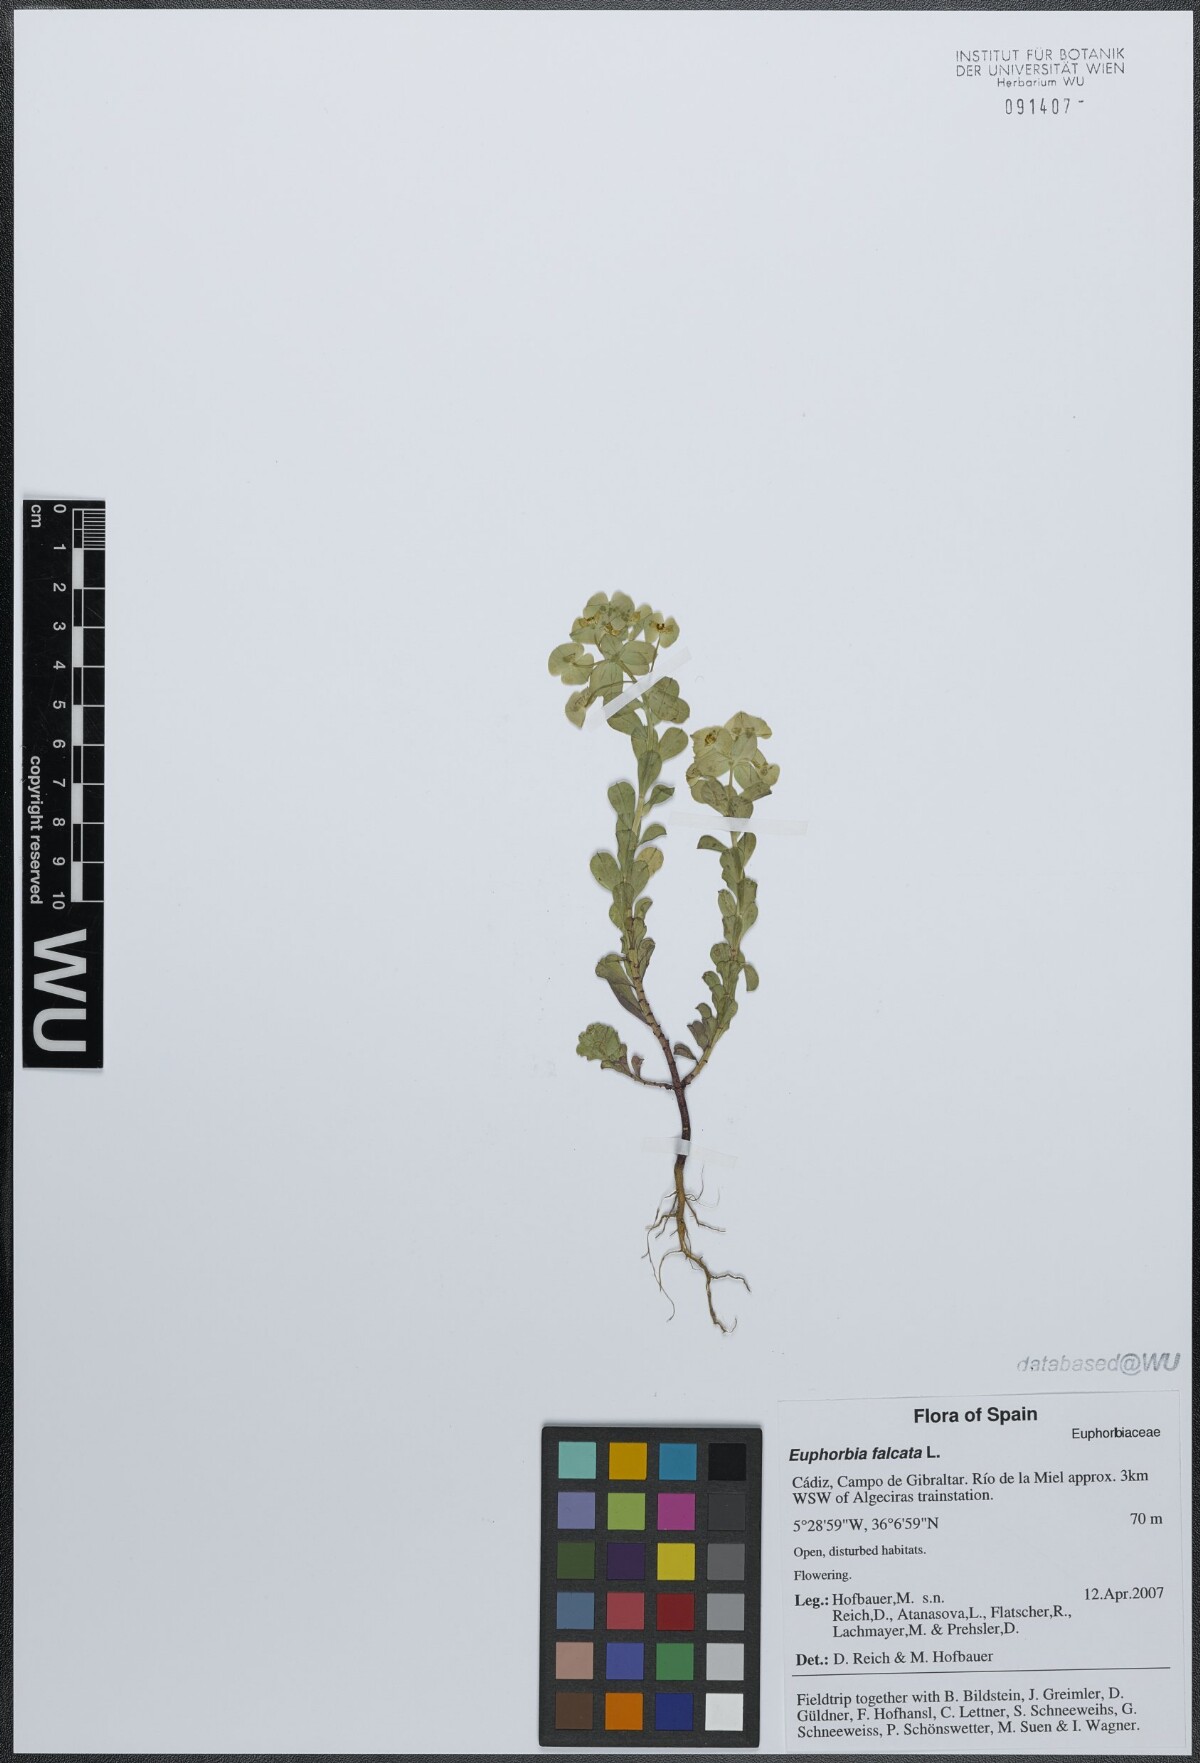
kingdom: Plantae
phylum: Tracheophyta
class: Magnoliopsida
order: Malpighiales
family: Euphorbiaceae
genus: Euphorbia
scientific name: Euphorbia falcata
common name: Sickle spurge
